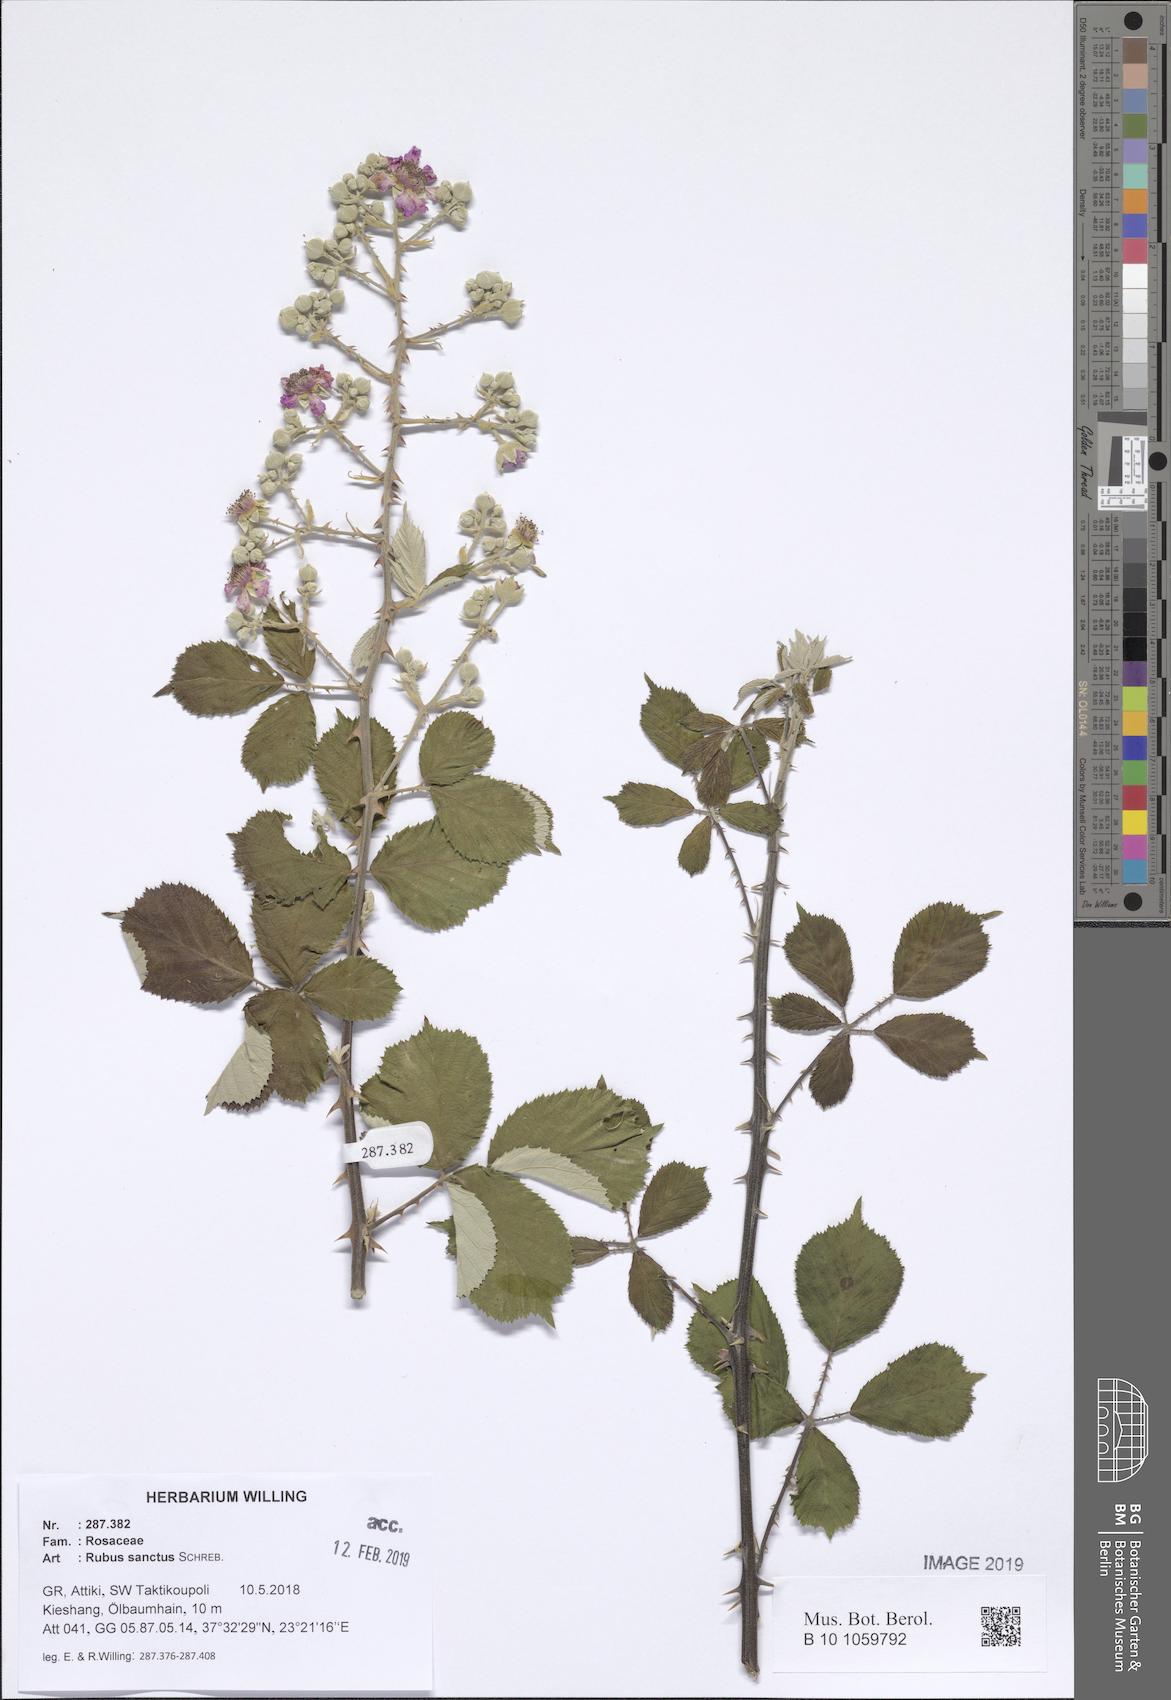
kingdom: Plantae
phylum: Tracheophyta
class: Magnoliopsida
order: Rosales
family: Rosaceae
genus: Rubus
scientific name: Rubus sanctus
